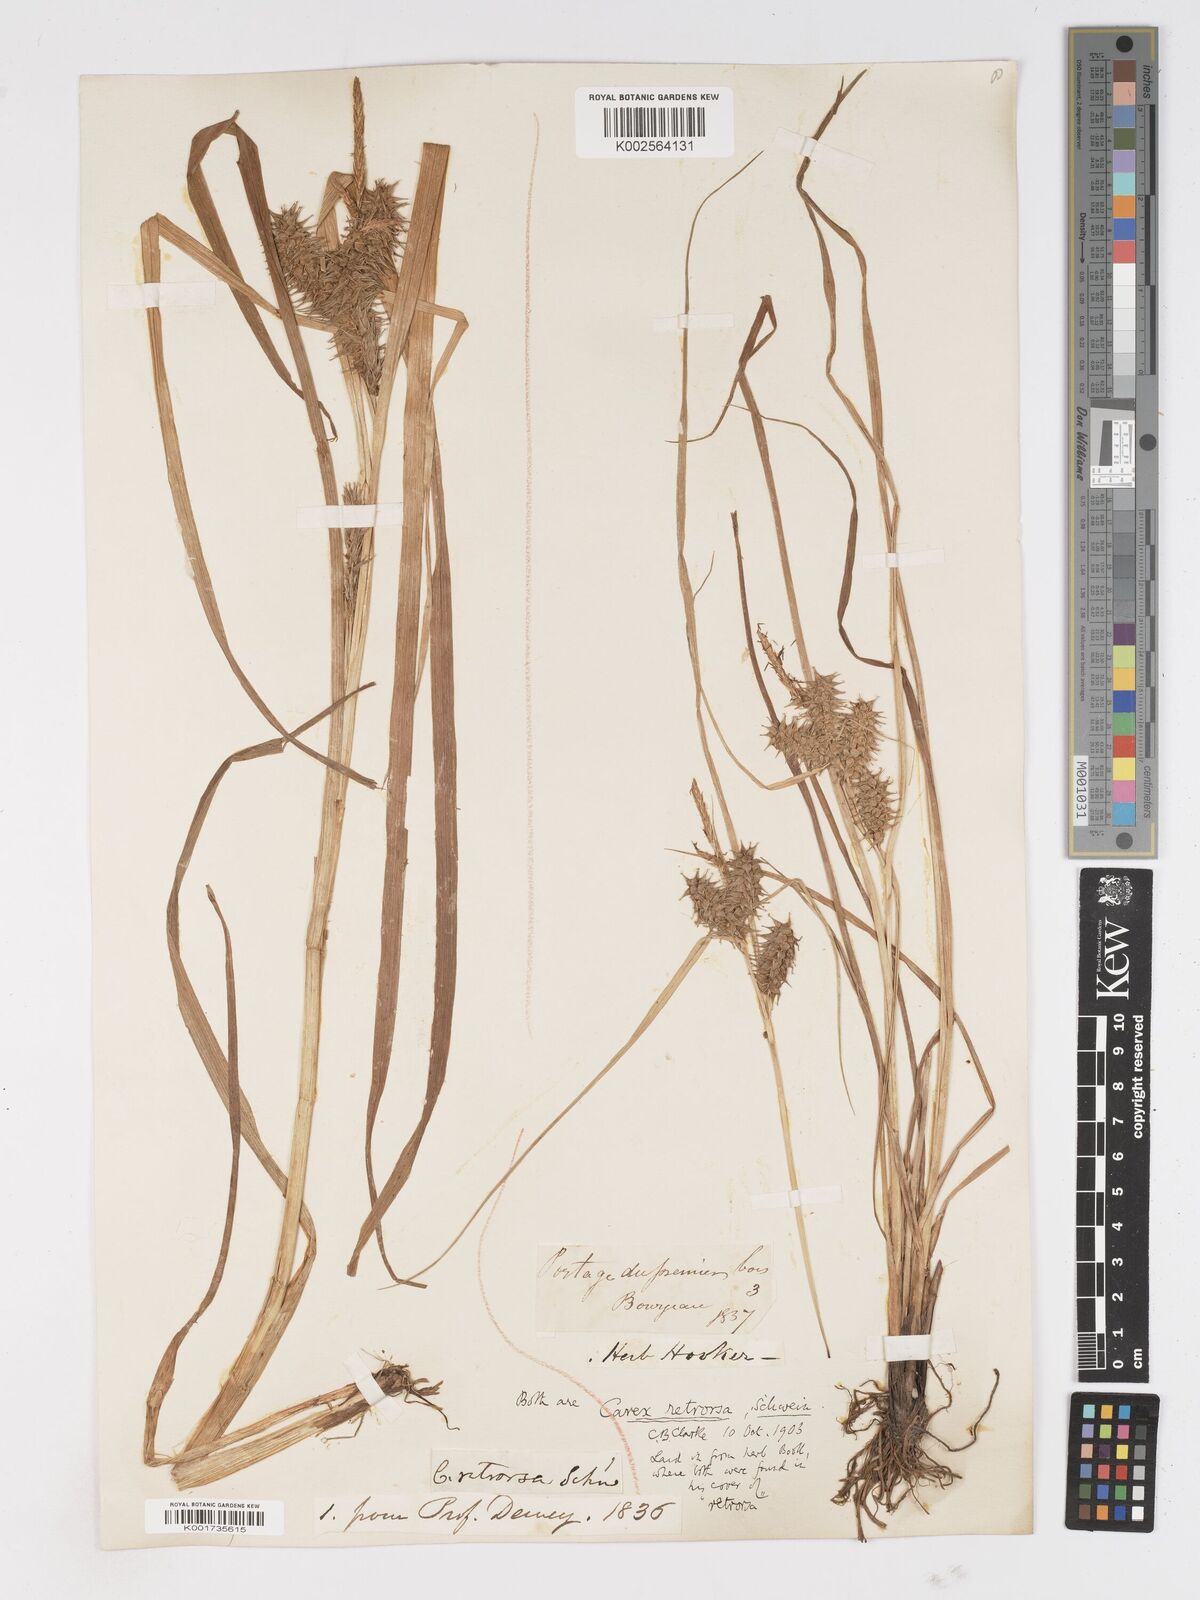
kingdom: Plantae
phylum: Tracheophyta
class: Liliopsida
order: Poales
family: Cyperaceae
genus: Carex
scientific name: Carex retrorsa
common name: Knot-sheath sedge
